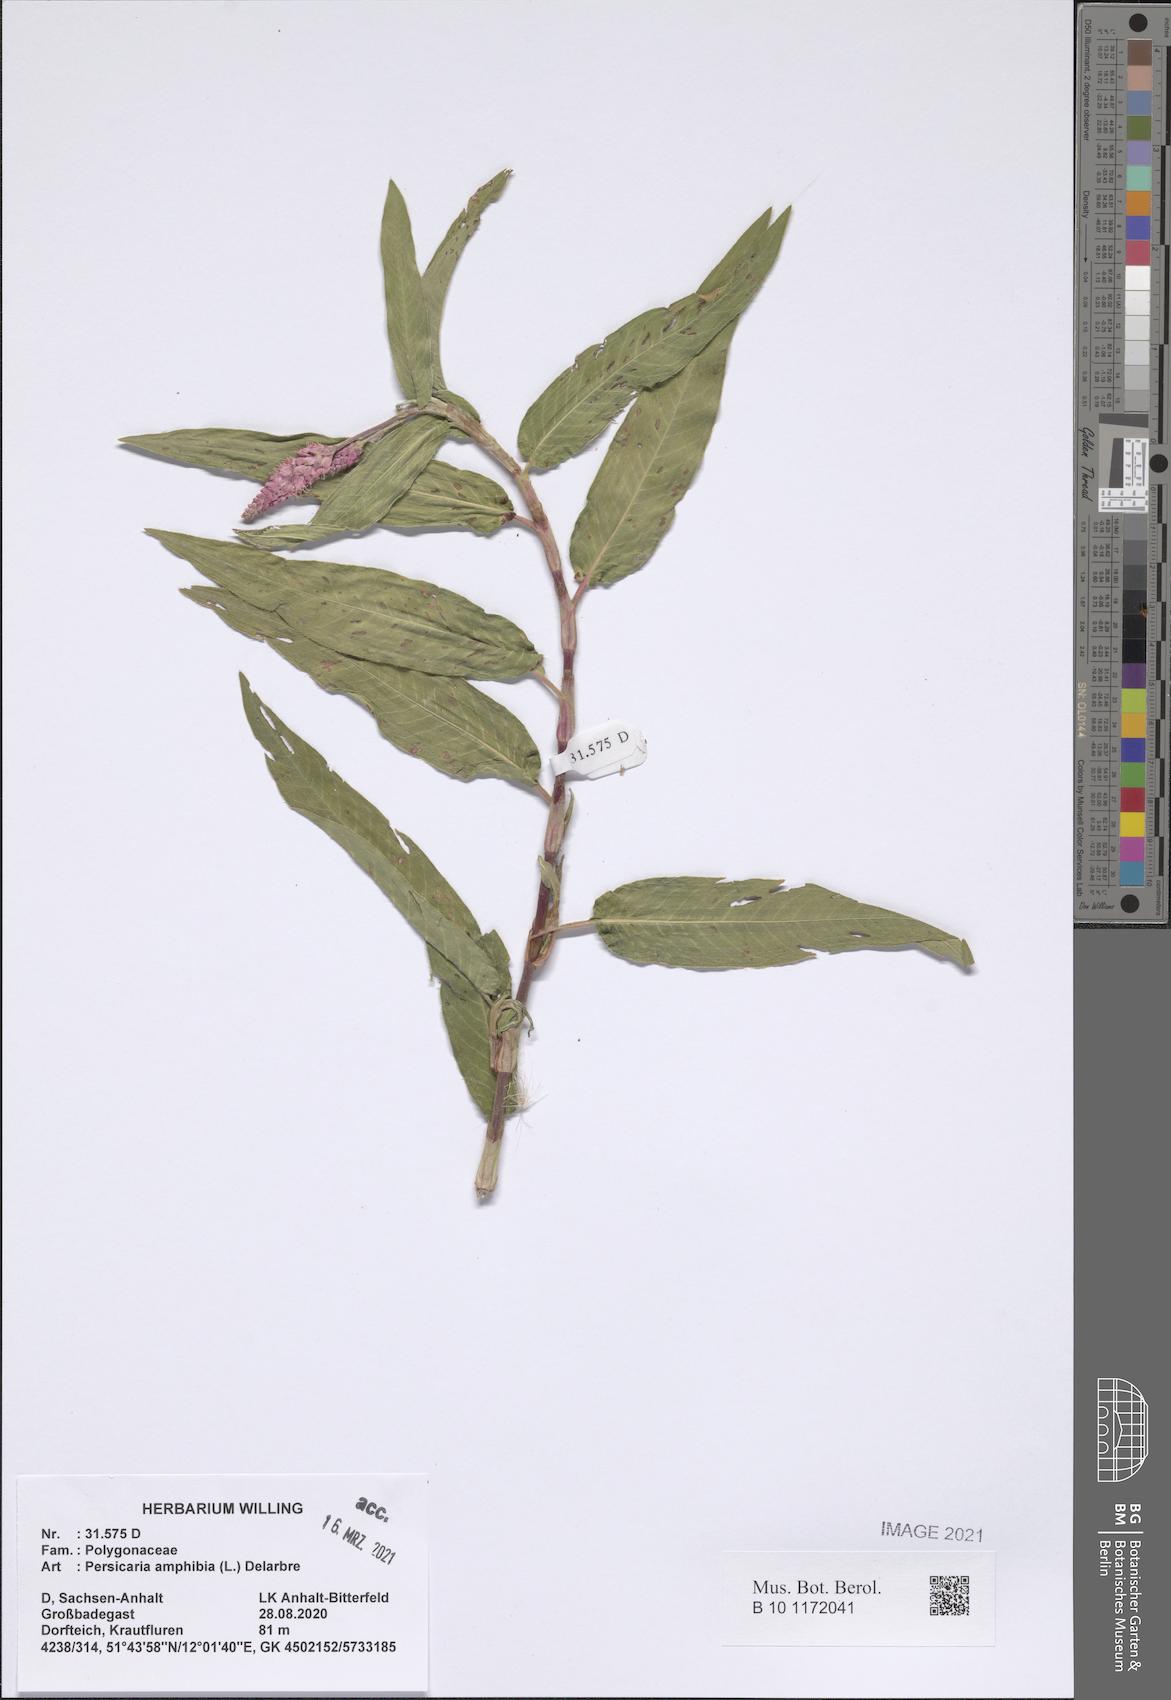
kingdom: Plantae
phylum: Tracheophyta
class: Magnoliopsida
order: Caryophyllales
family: Polygonaceae
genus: Persicaria
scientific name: Persicaria amphibia
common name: Amphibious bistort
